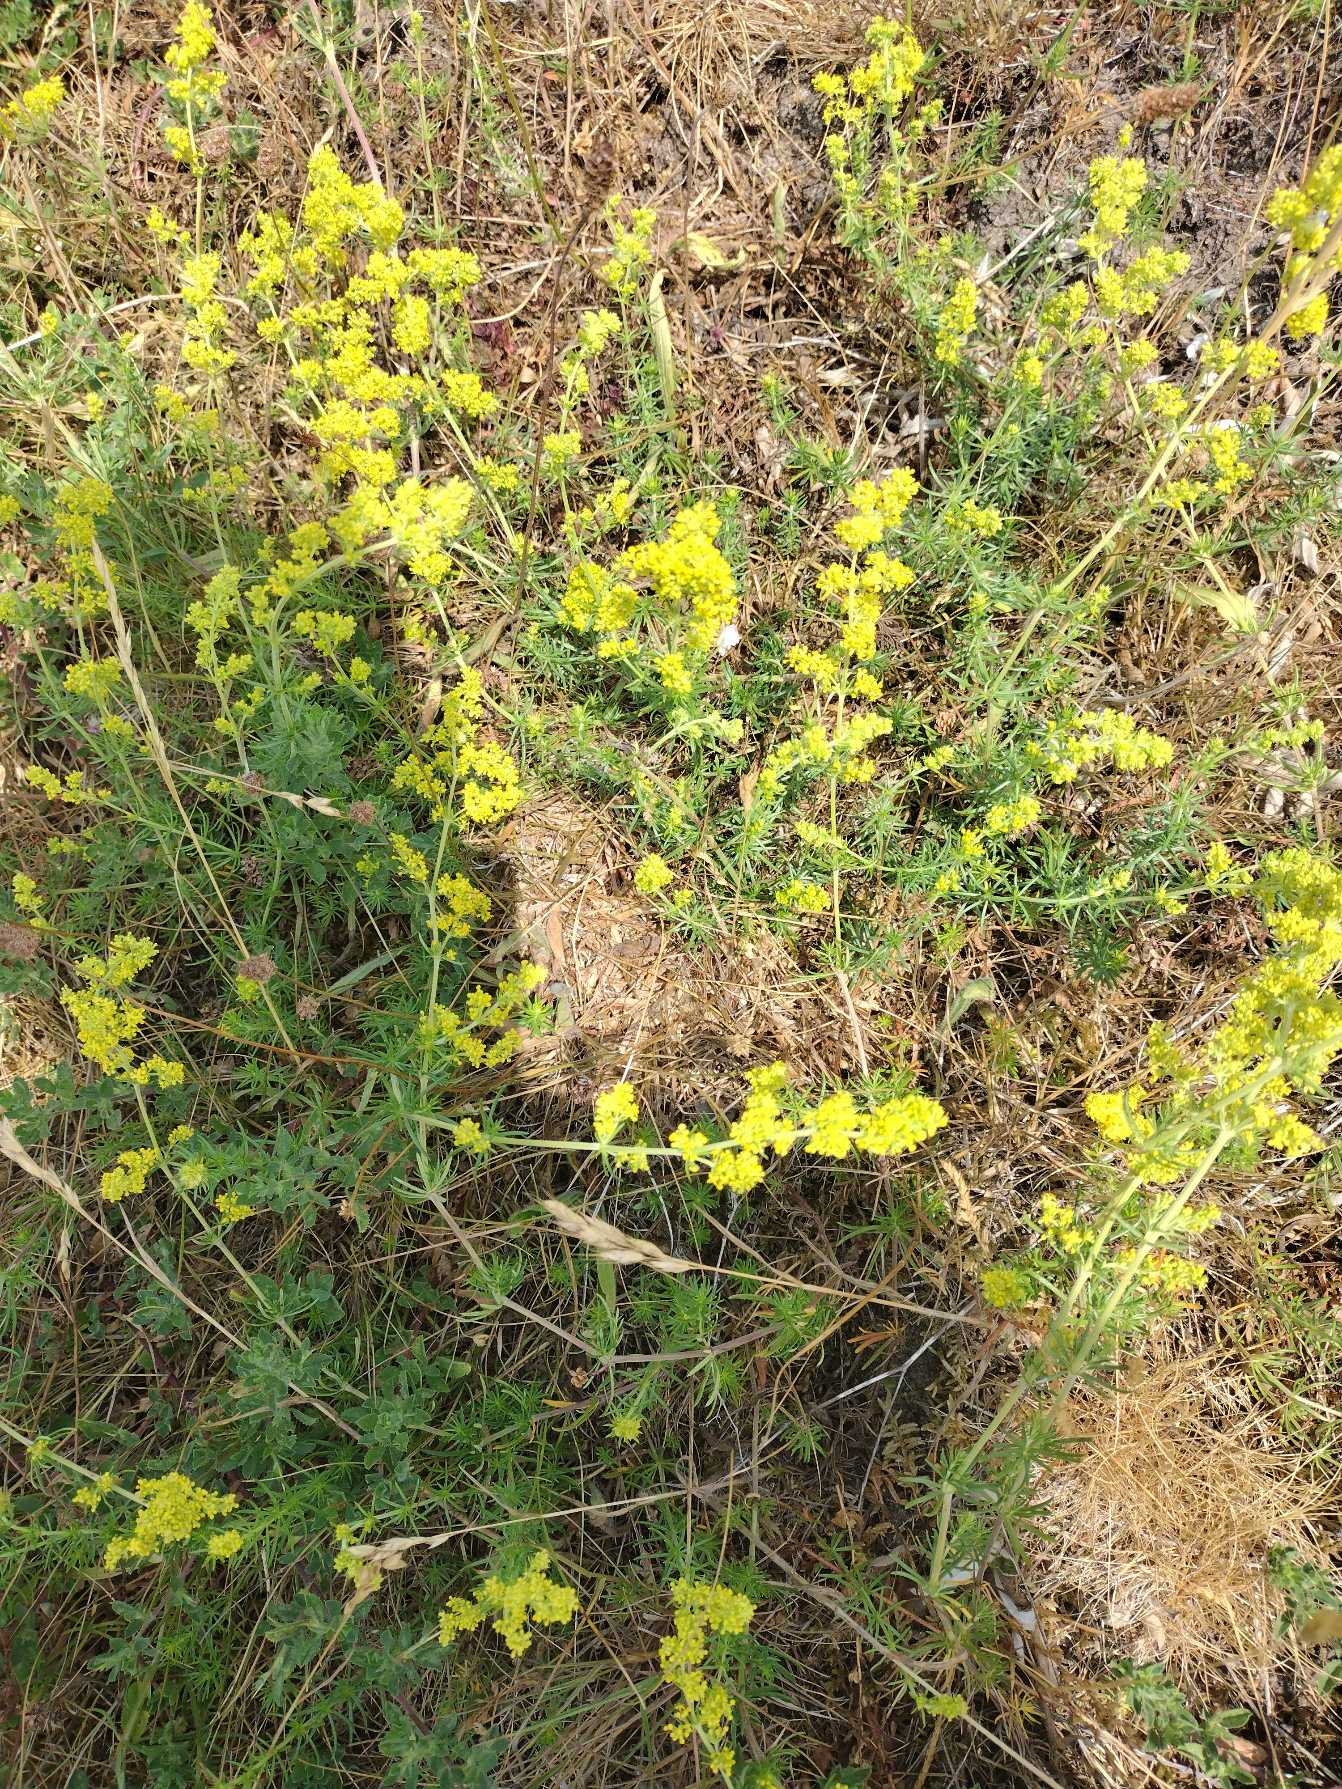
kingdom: Plantae
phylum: Tracheophyta
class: Magnoliopsida
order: Gentianales
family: Rubiaceae
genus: Galium
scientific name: Galium verum
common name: Gul snerre
